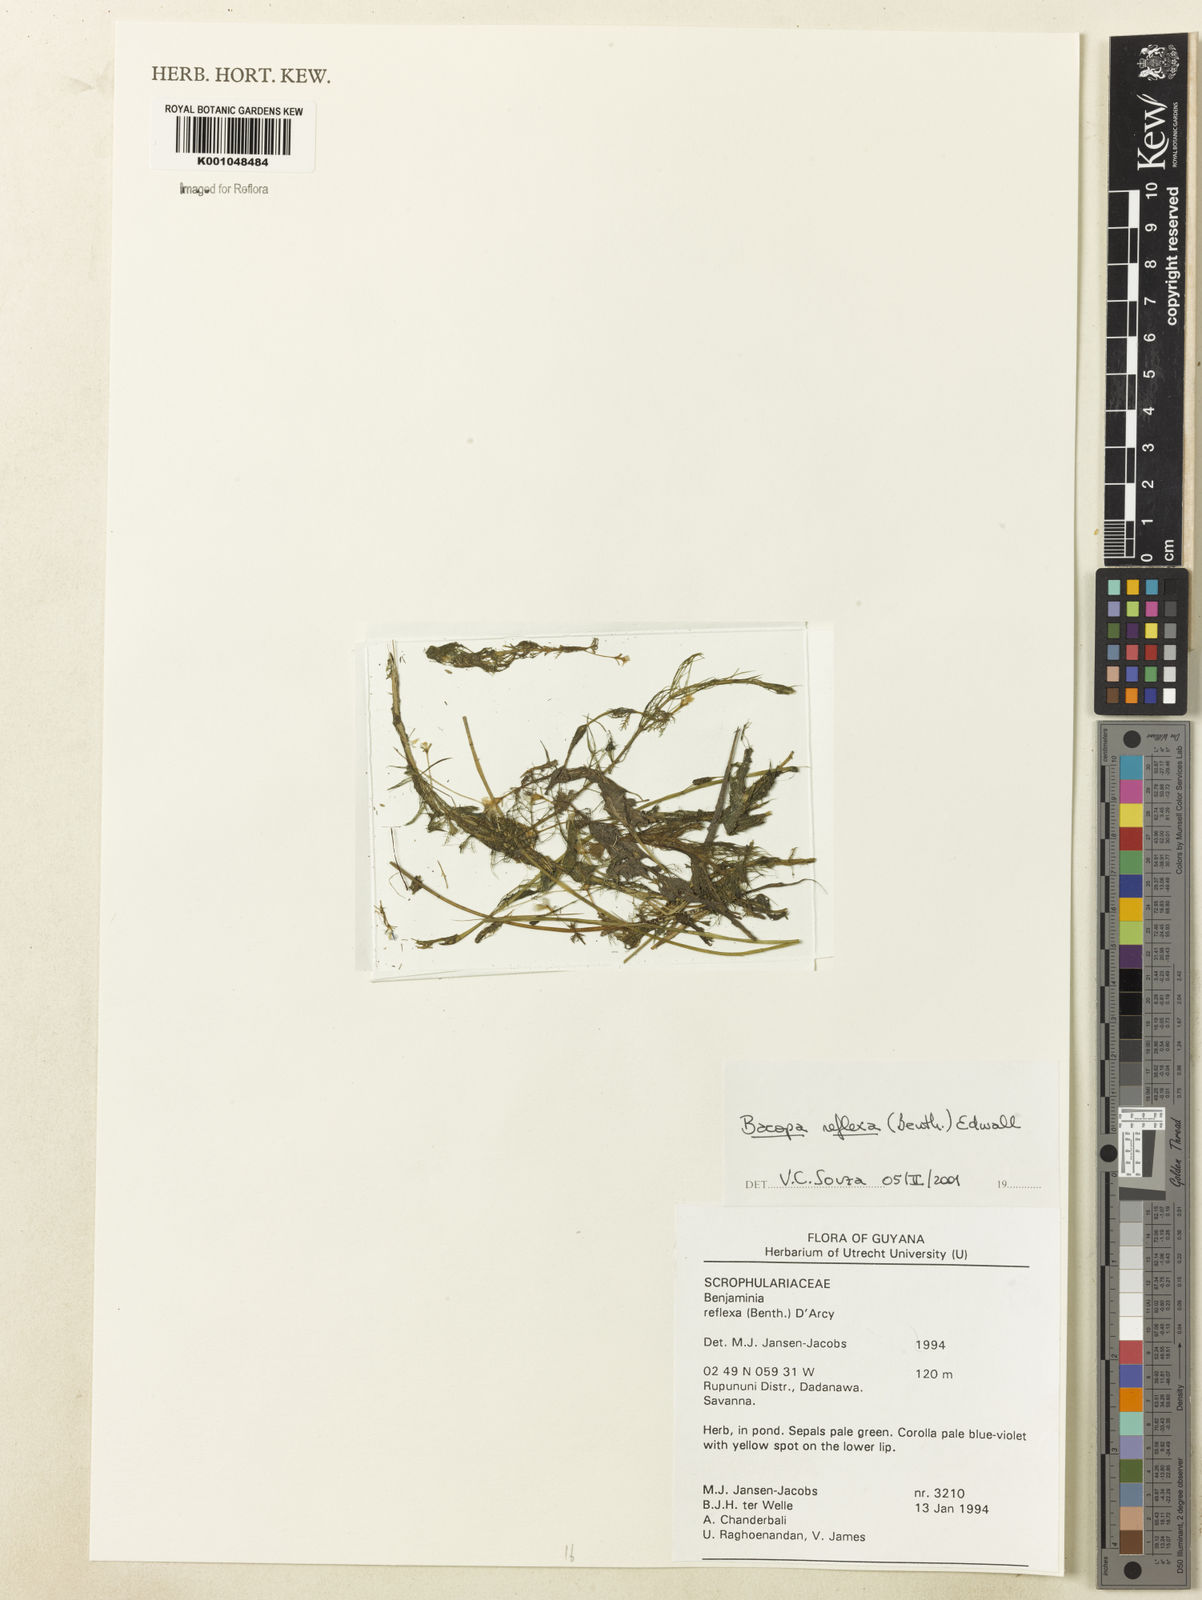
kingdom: Plantae
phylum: Tracheophyta
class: Magnoliopsida
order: Lamiales
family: Plantaginaceae
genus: Bacopa
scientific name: Bacopa reflexa
